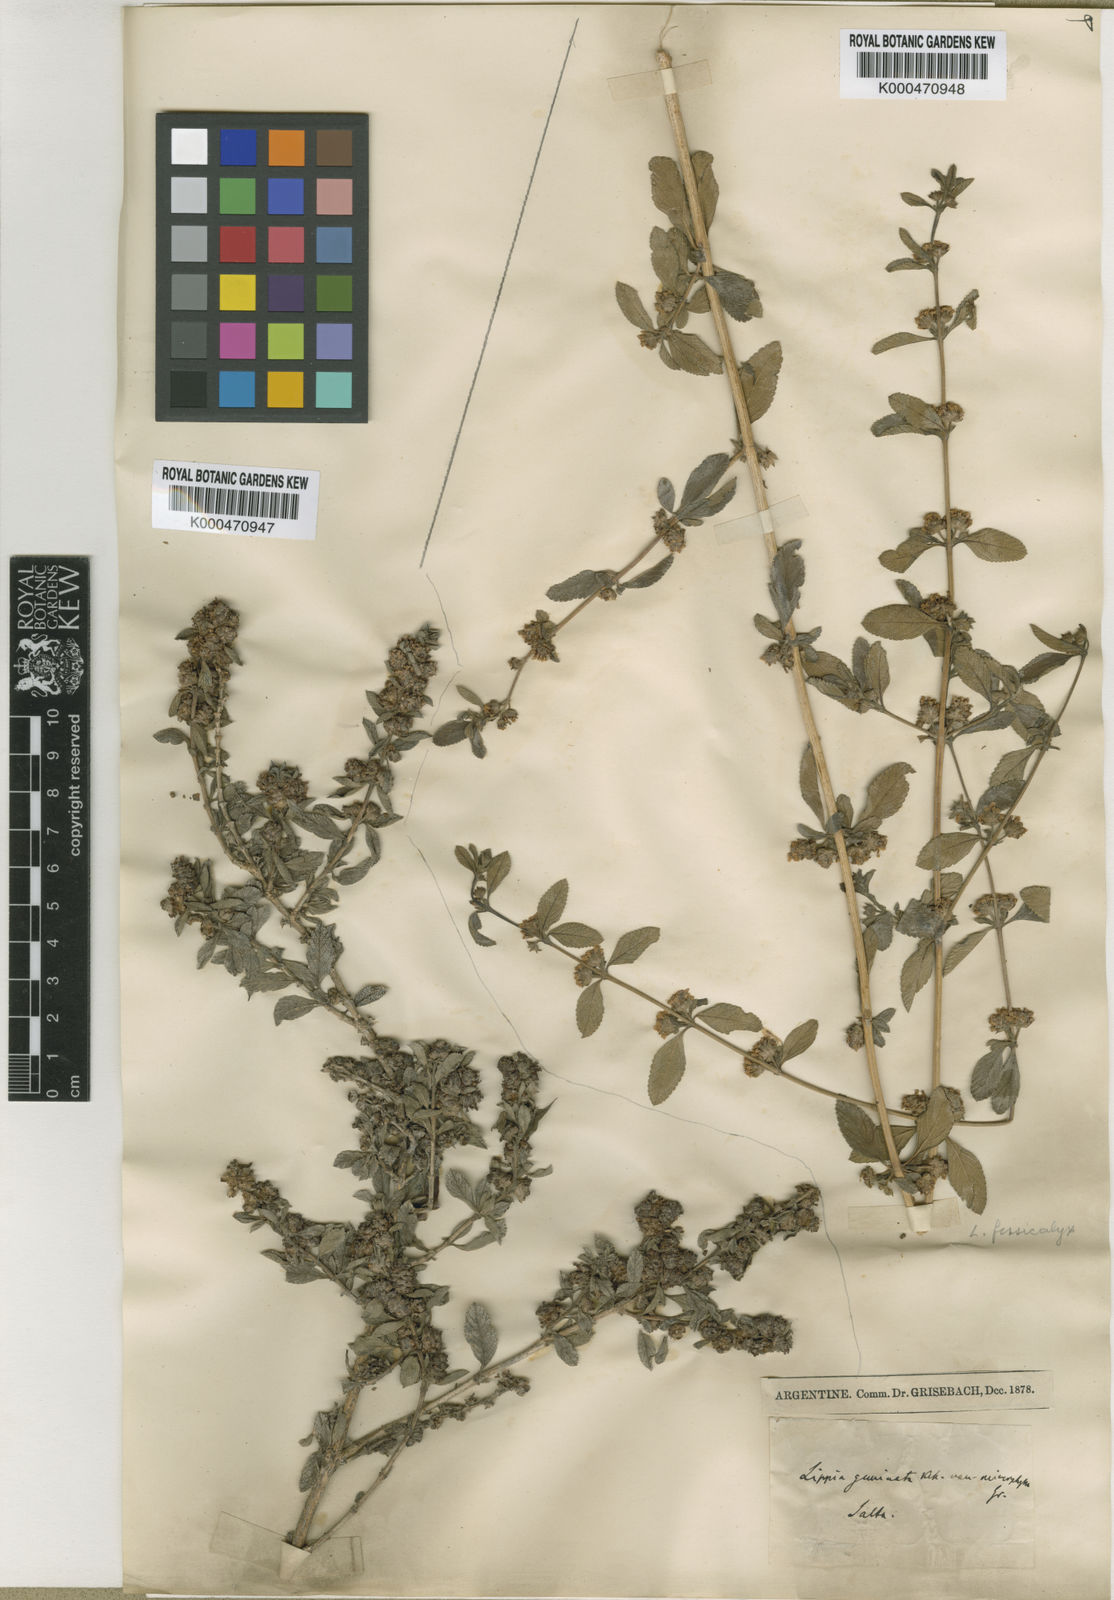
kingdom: Plantae
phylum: Tracheophyta
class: Magnoliopsida
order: Lamiales
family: Verbenaceae
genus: Lippia
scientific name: Lippia alba
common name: Bushy matgrass
